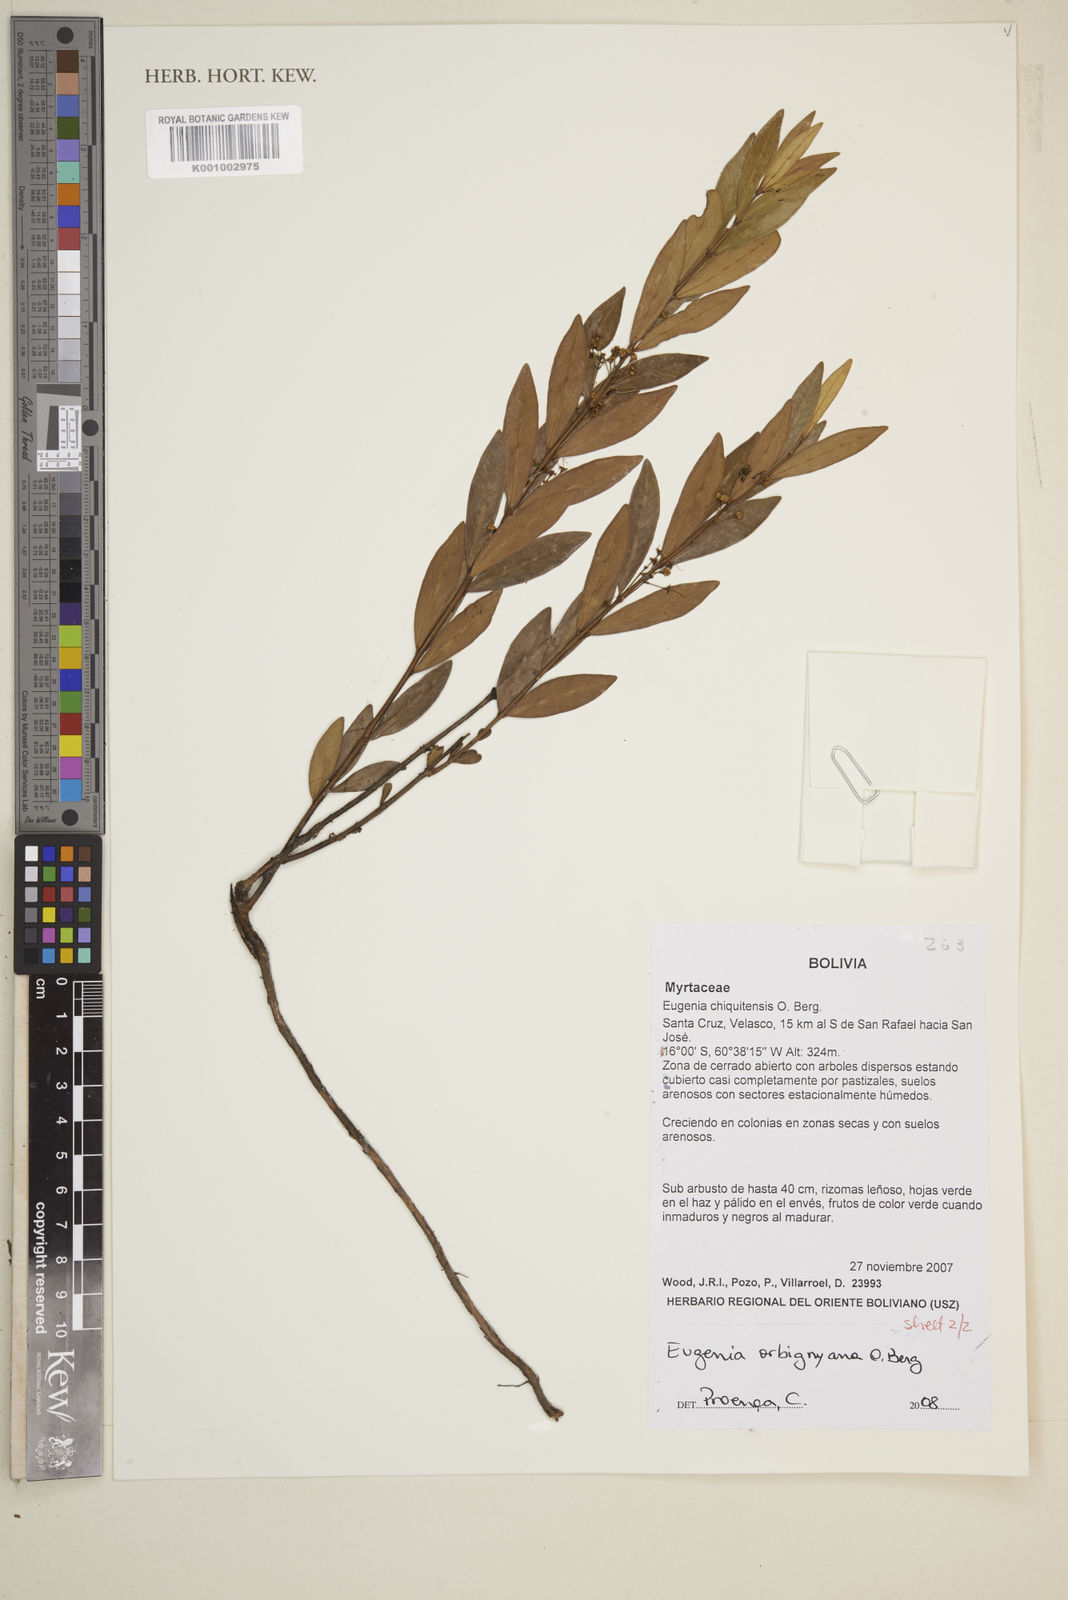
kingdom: Plantae
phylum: Tracheophyta
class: Magnoliopsida
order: Myrtales
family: Myrtaceae
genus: Eugenia
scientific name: Eugenia orbignyana
